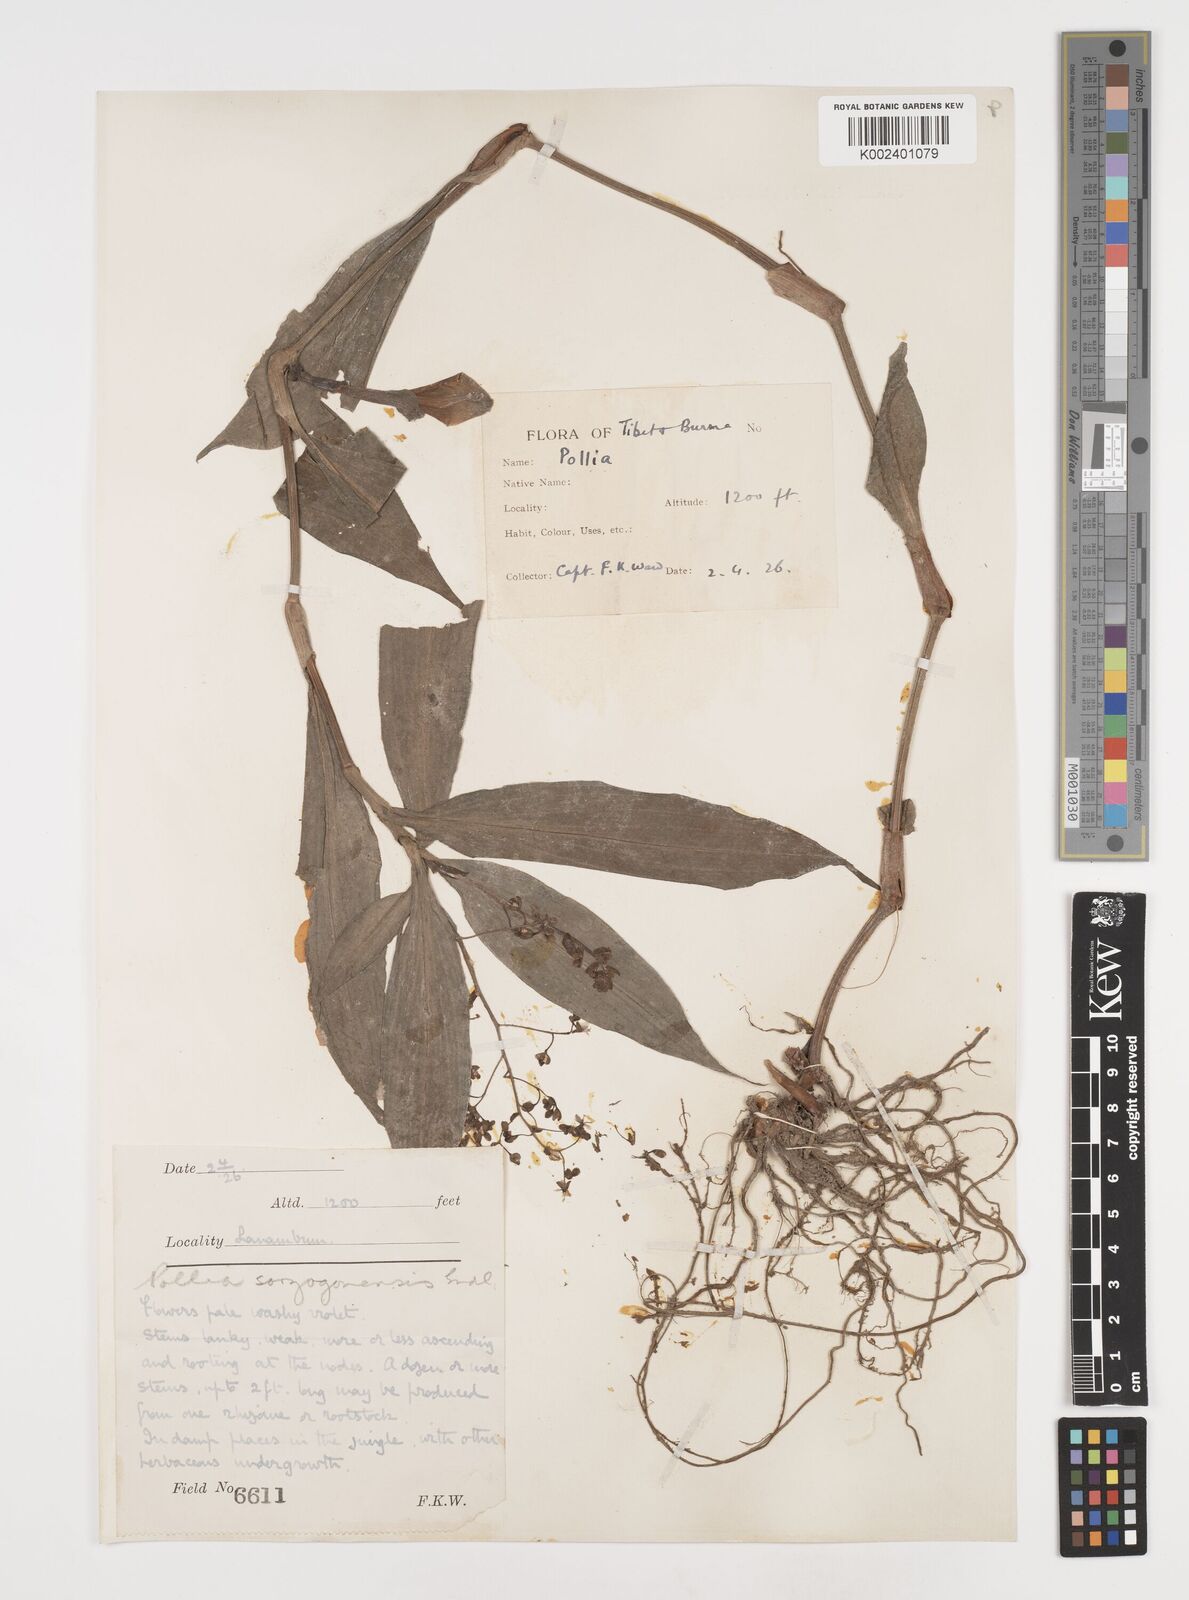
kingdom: Plantae
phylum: Tracheophyta
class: Liliopsida
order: Commelinales
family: Commelinaceae
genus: Pollia
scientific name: Pollia secundiflora
